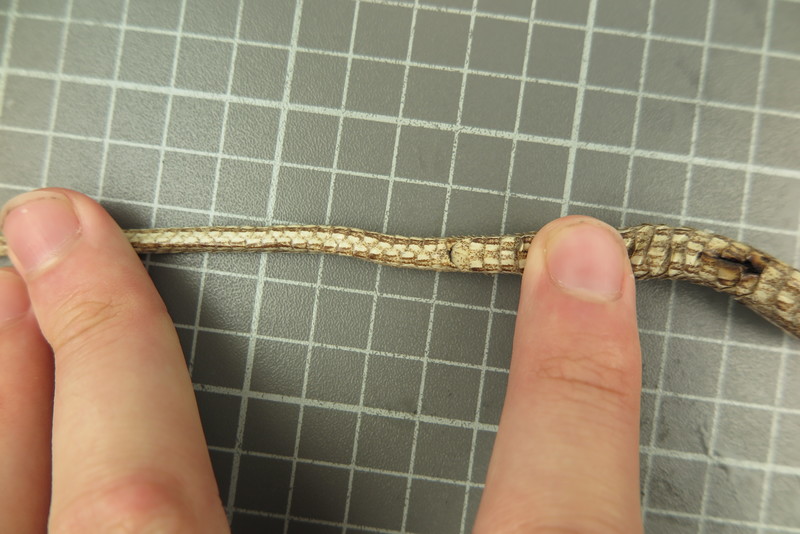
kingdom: Animalia
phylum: Chordata
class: Squamata
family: Psammophiidae
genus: Mimophis
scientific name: Mimophis
